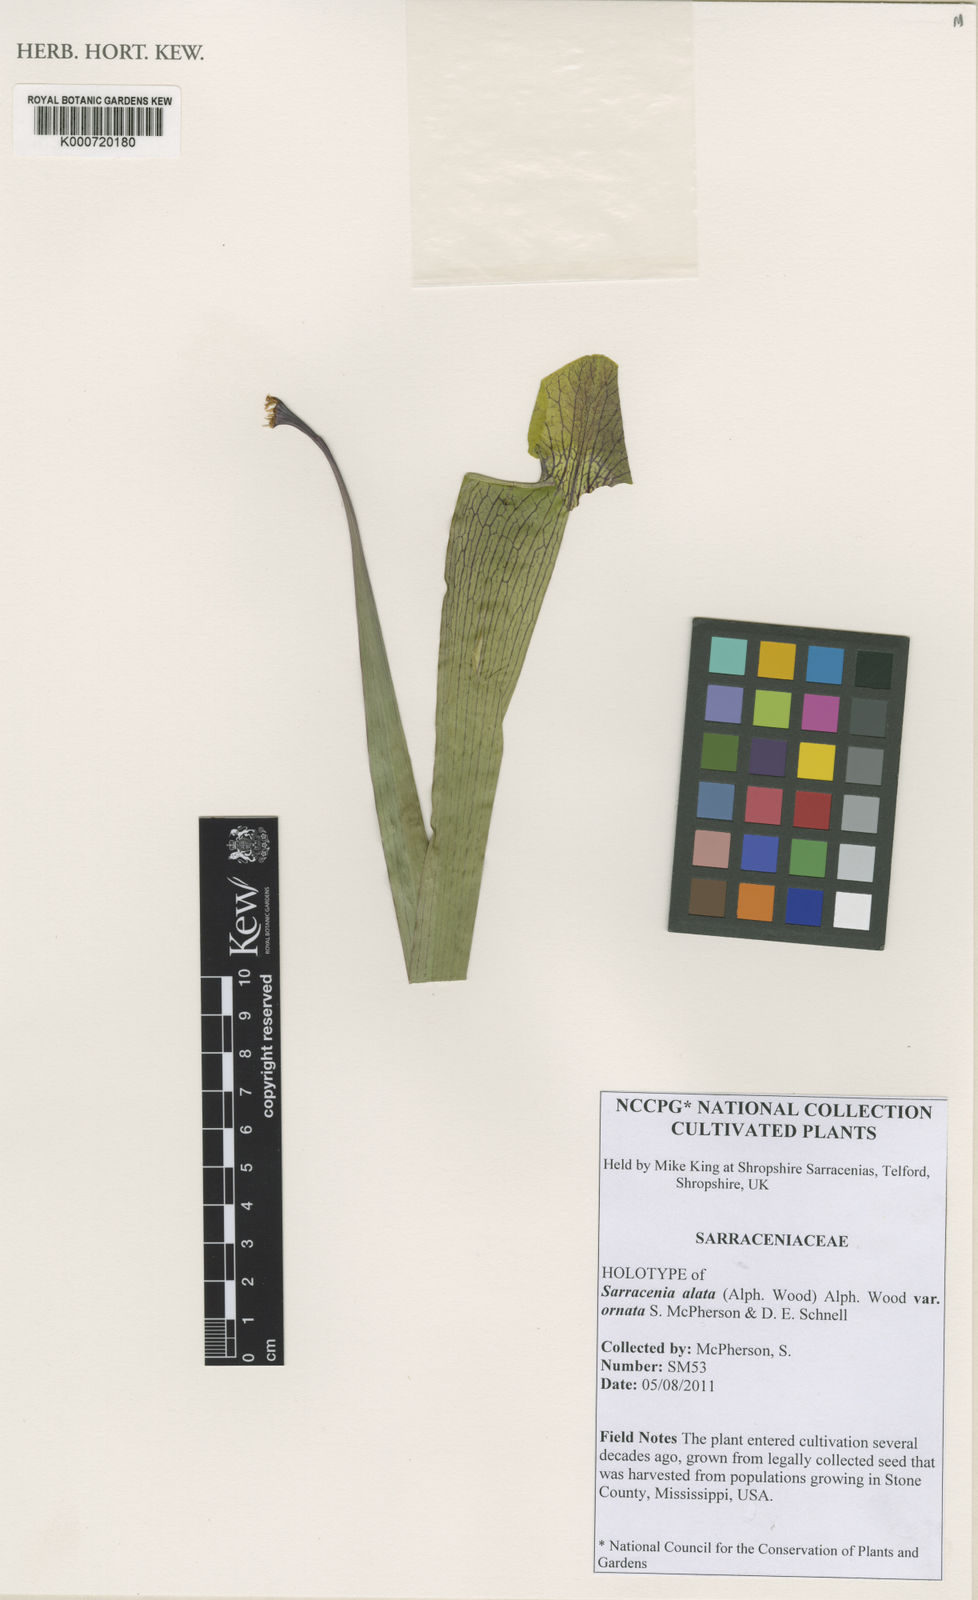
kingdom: Plantae
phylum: Tracheophyta
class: Magnoliopsida
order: Ericales
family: Sarraceniaceae
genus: Sarracenia
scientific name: Sarracenia alata
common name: Yellow trumpets
